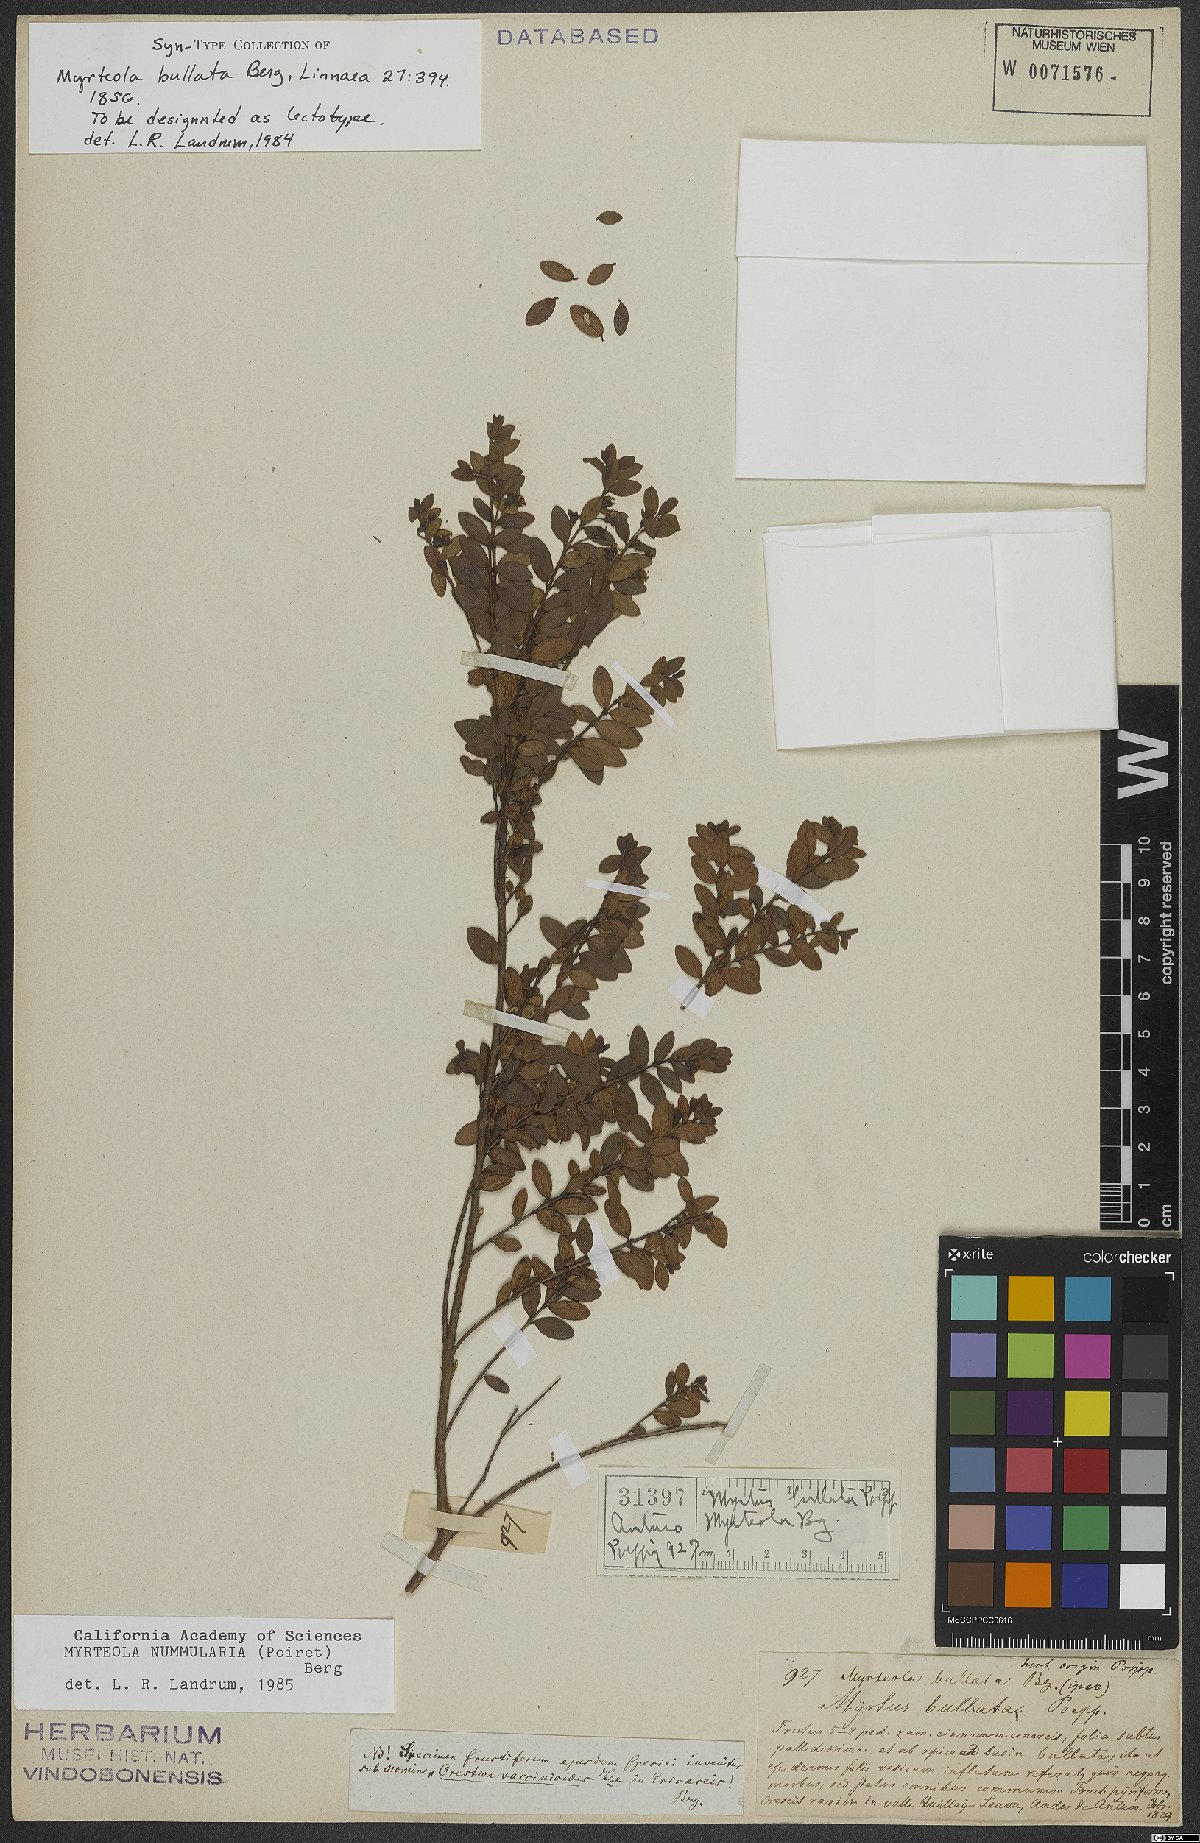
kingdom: Plantae
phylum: Tracheophyta
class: Magnoliopsida
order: Myrtales
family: Myrtaceae
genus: Myrteola
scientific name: Myrteola nummularia
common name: Cranberry-myrtle
